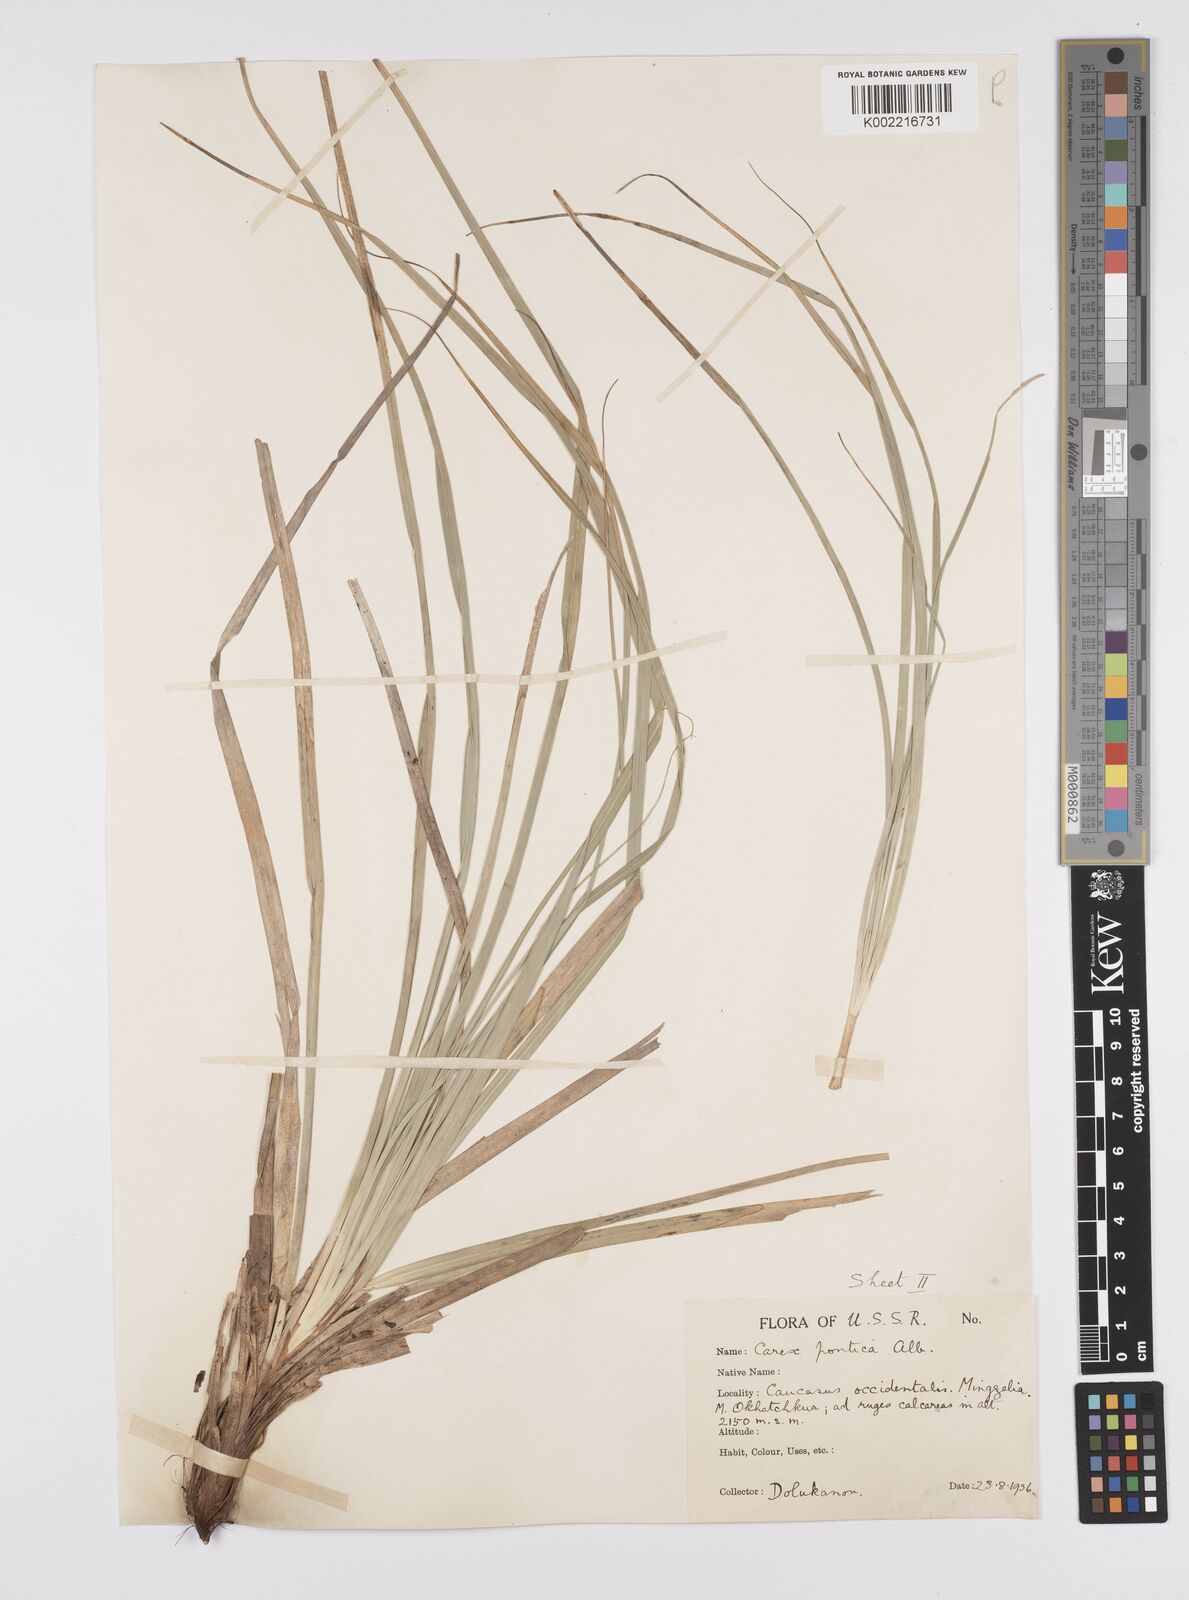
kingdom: Plantae
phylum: Tracheophyta
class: Liliopsida
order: Poales
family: Cyperaceae
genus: Carex
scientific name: Carex
